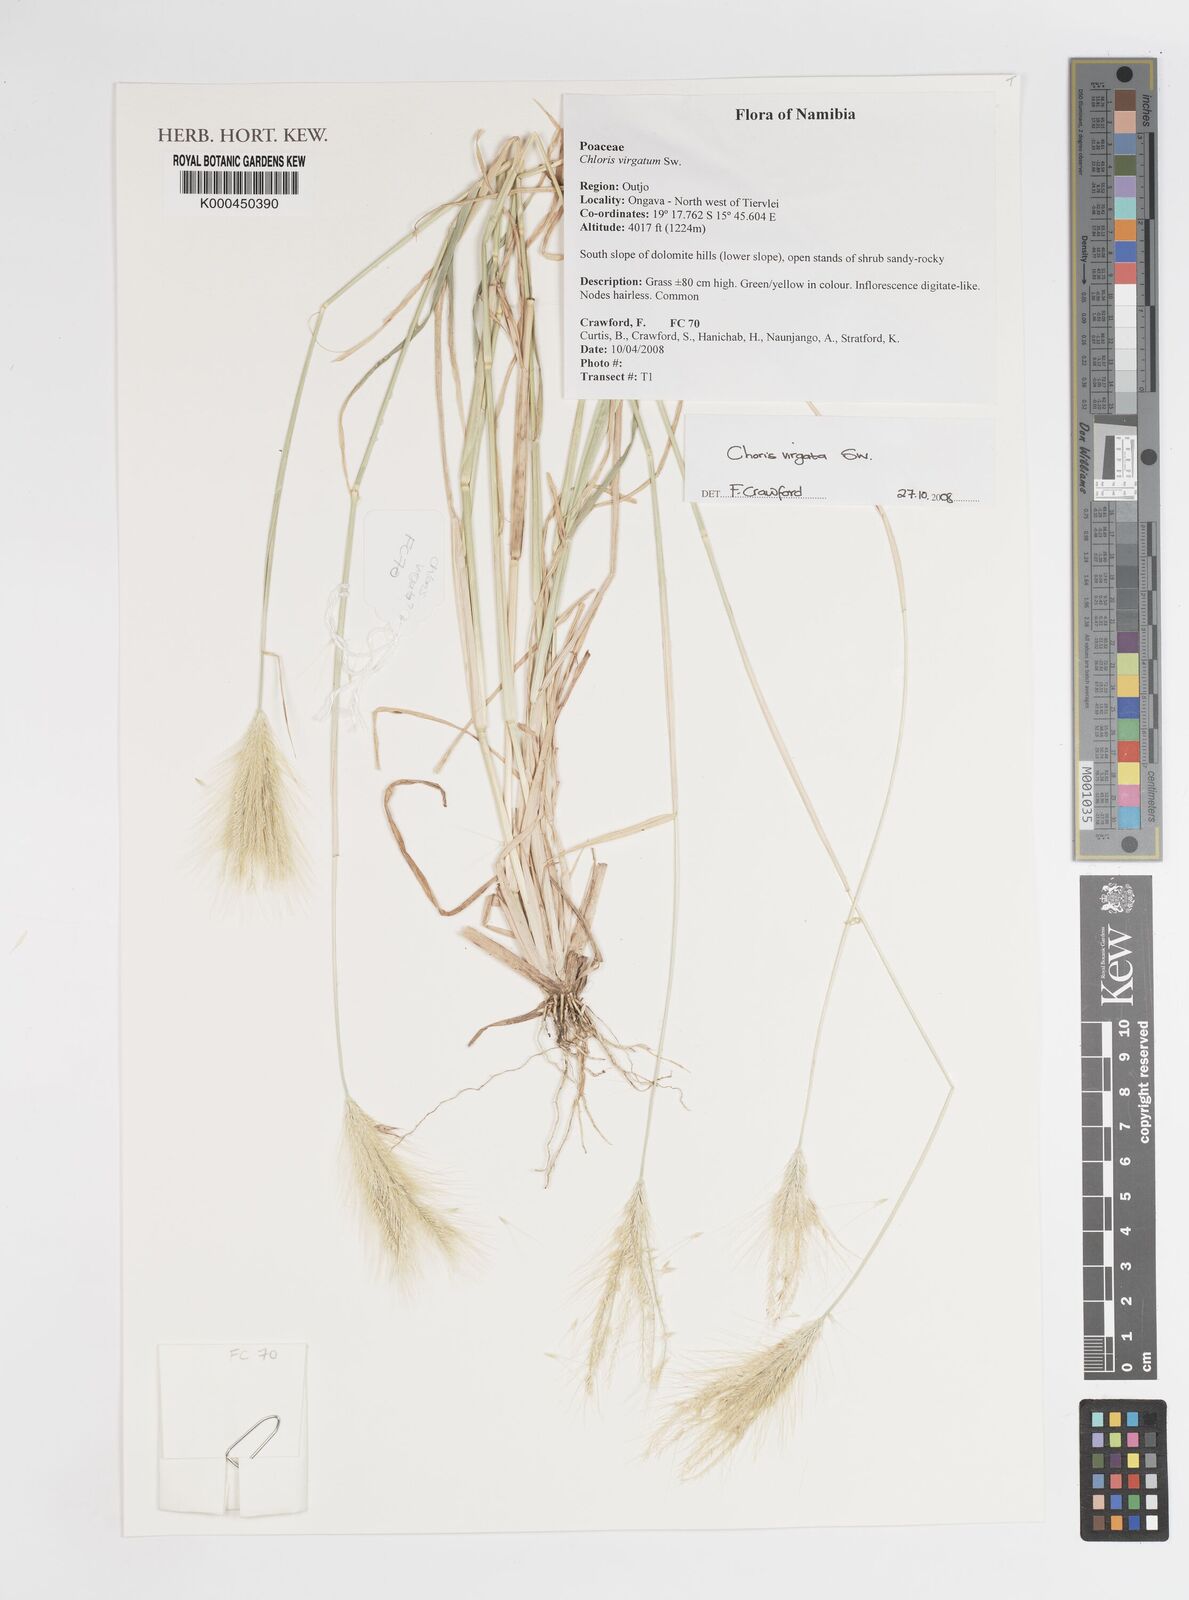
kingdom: Plantae
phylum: Tracheophyta
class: Liliopsida
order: Poales
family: Poaceae
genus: Chloris
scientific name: Chloris virgata
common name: Feathery rhodes-grass
